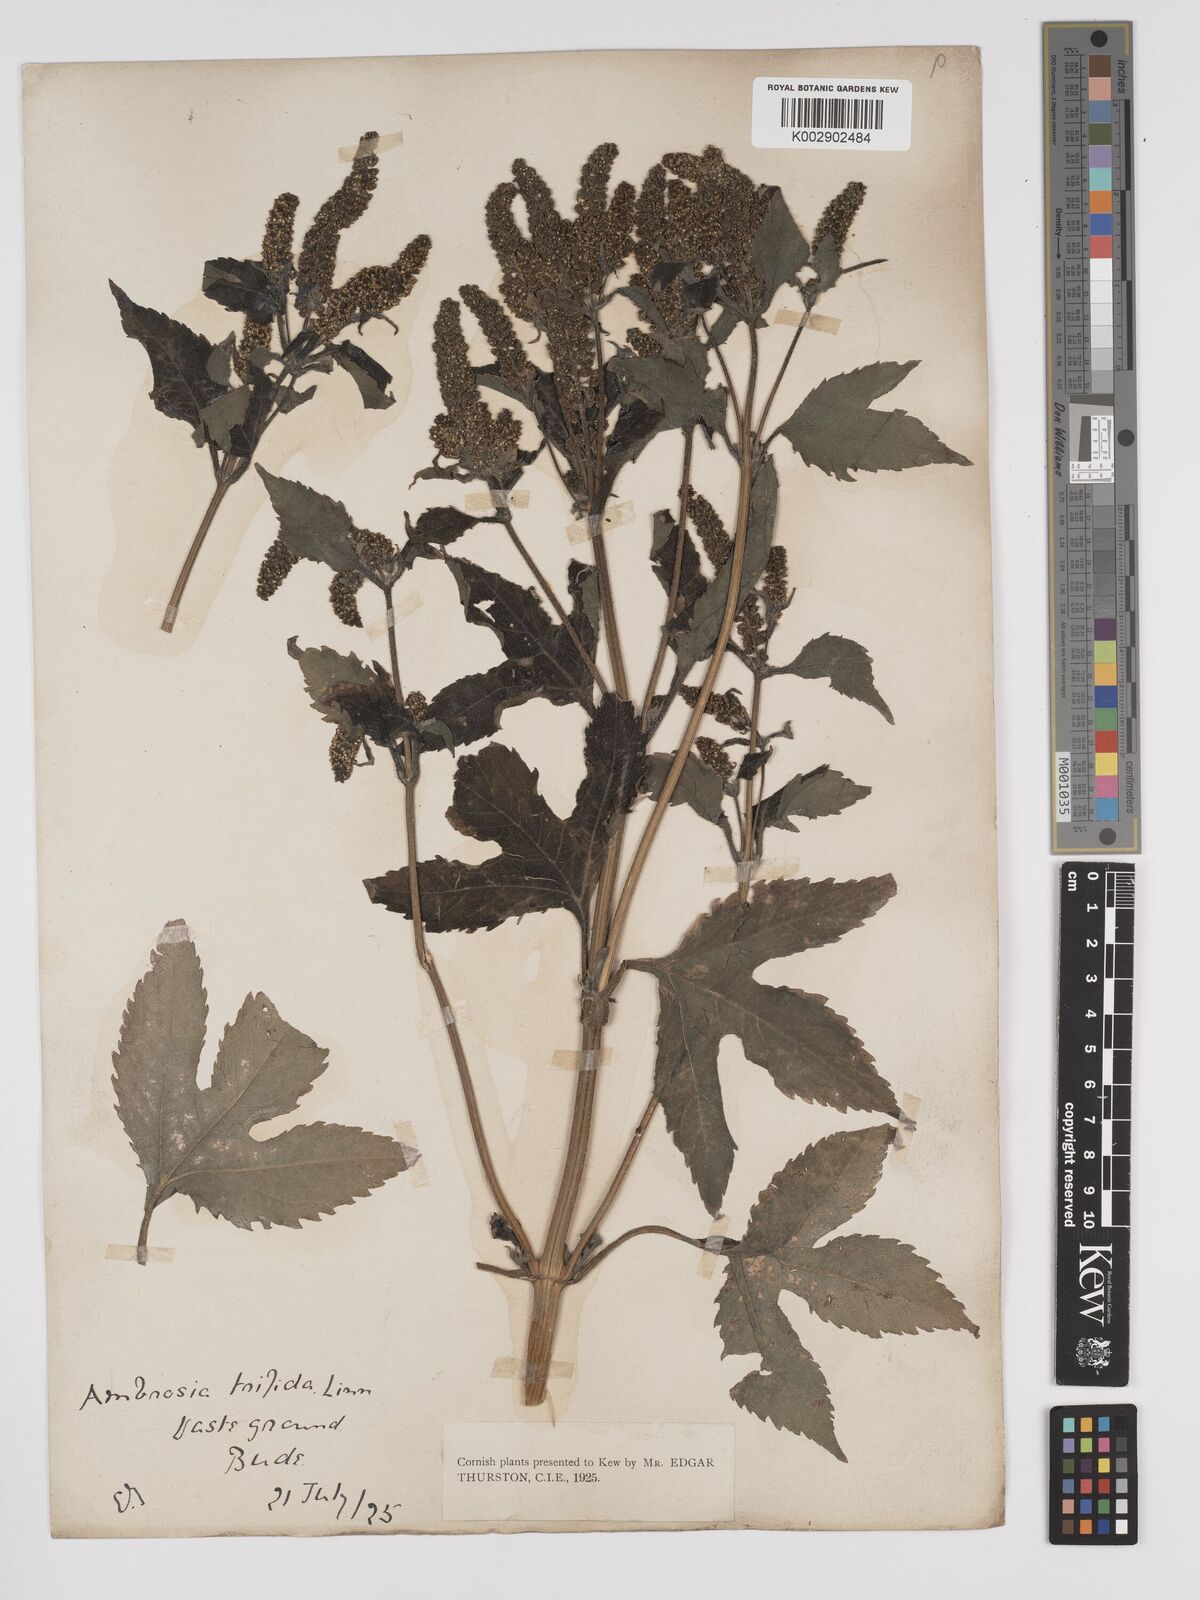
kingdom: Plantae
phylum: Tracheophyta
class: Magnoliopsida
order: Asterales
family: Asteraceae
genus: Ambrosia
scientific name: Ambrosia trifida
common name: Giant ragweed
